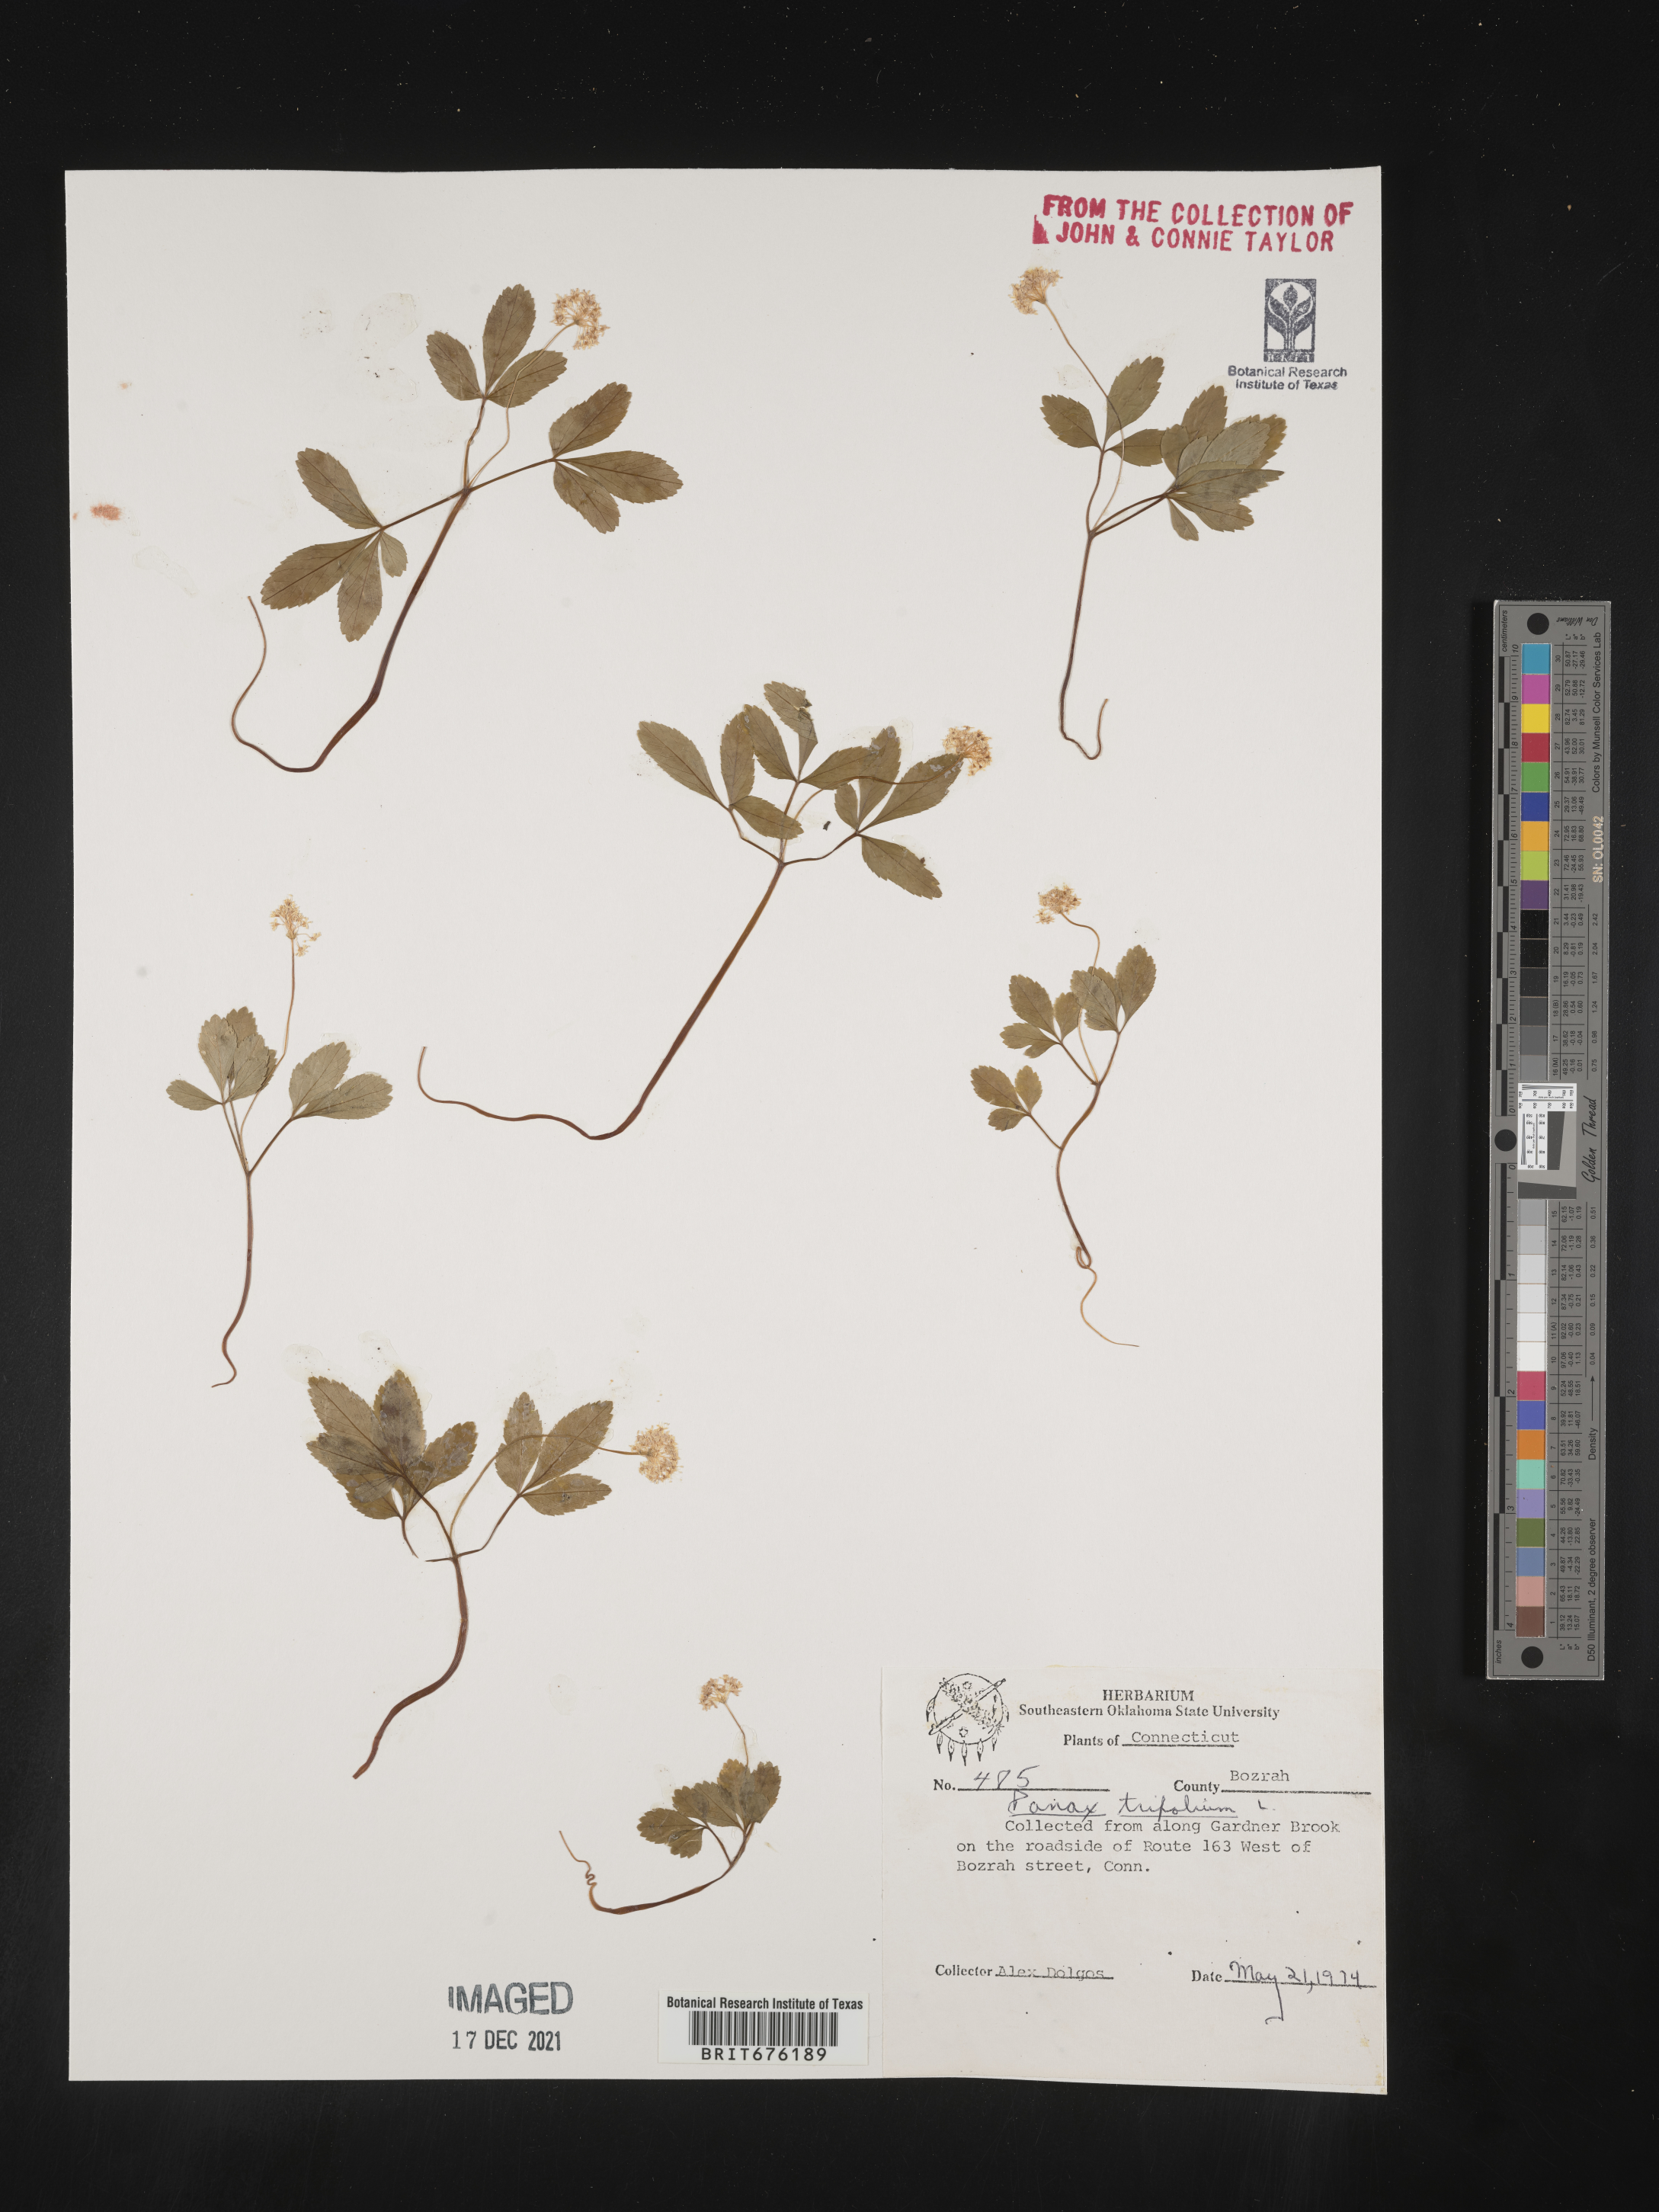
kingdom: Plantae
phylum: Tracheophyta
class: Magnoliopsida
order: Apiales
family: Araliaceae
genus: Panax
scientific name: Panax trifolius
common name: Dwarf ginseng
